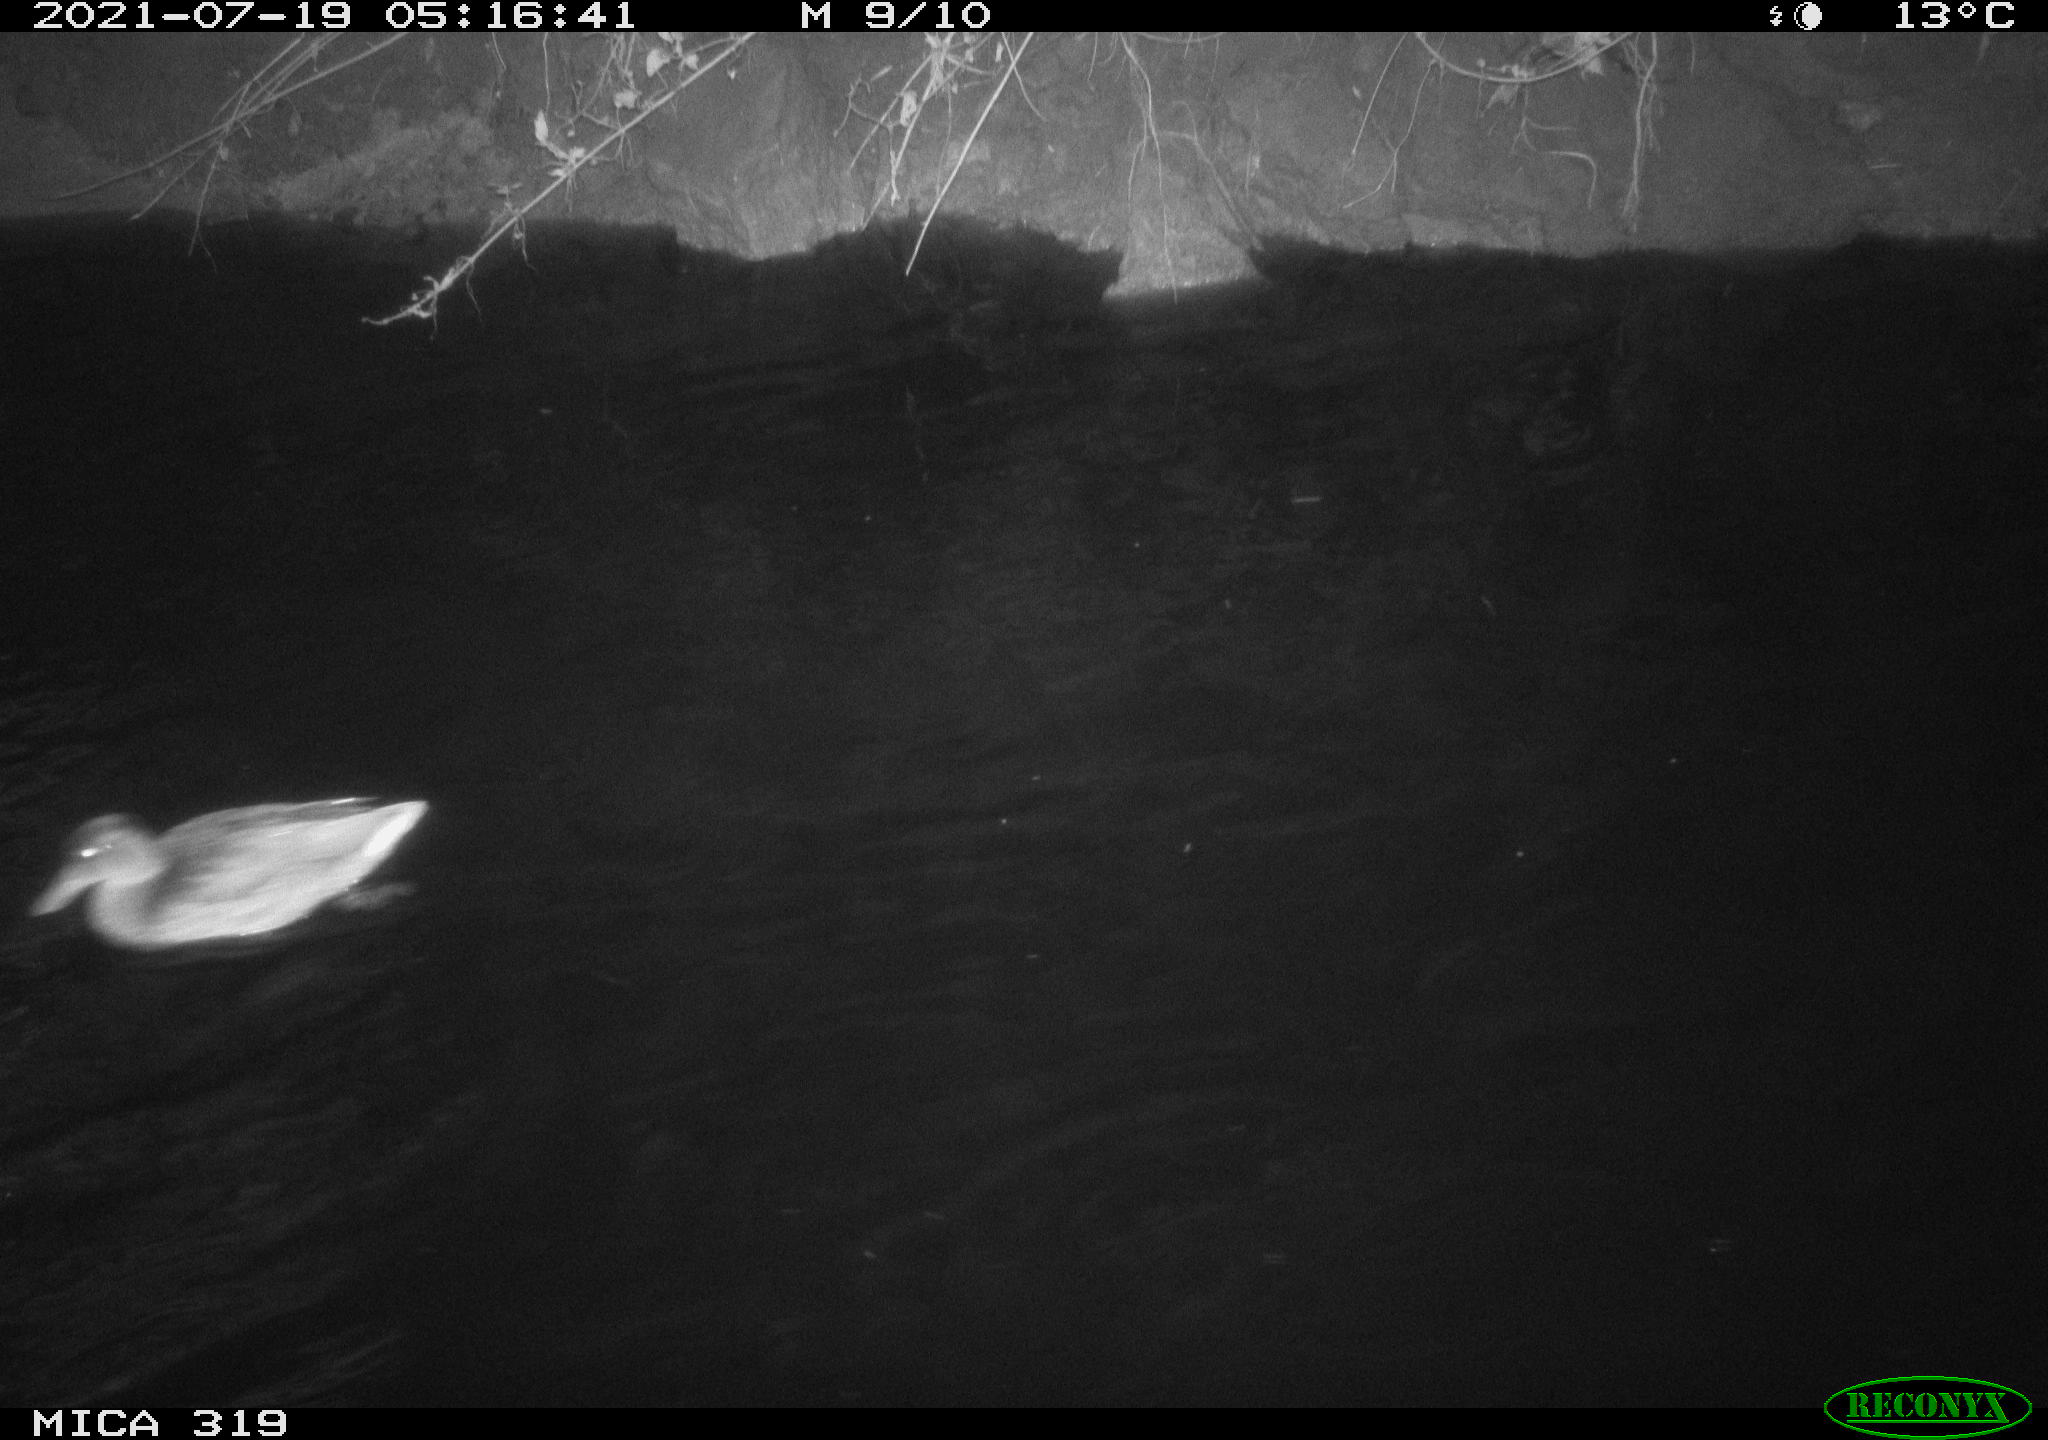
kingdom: Animalia
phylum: Chordata
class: Aves
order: Anseriformes
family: Anatidae
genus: Mareca
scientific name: Mareca strepera
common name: Gadwall
